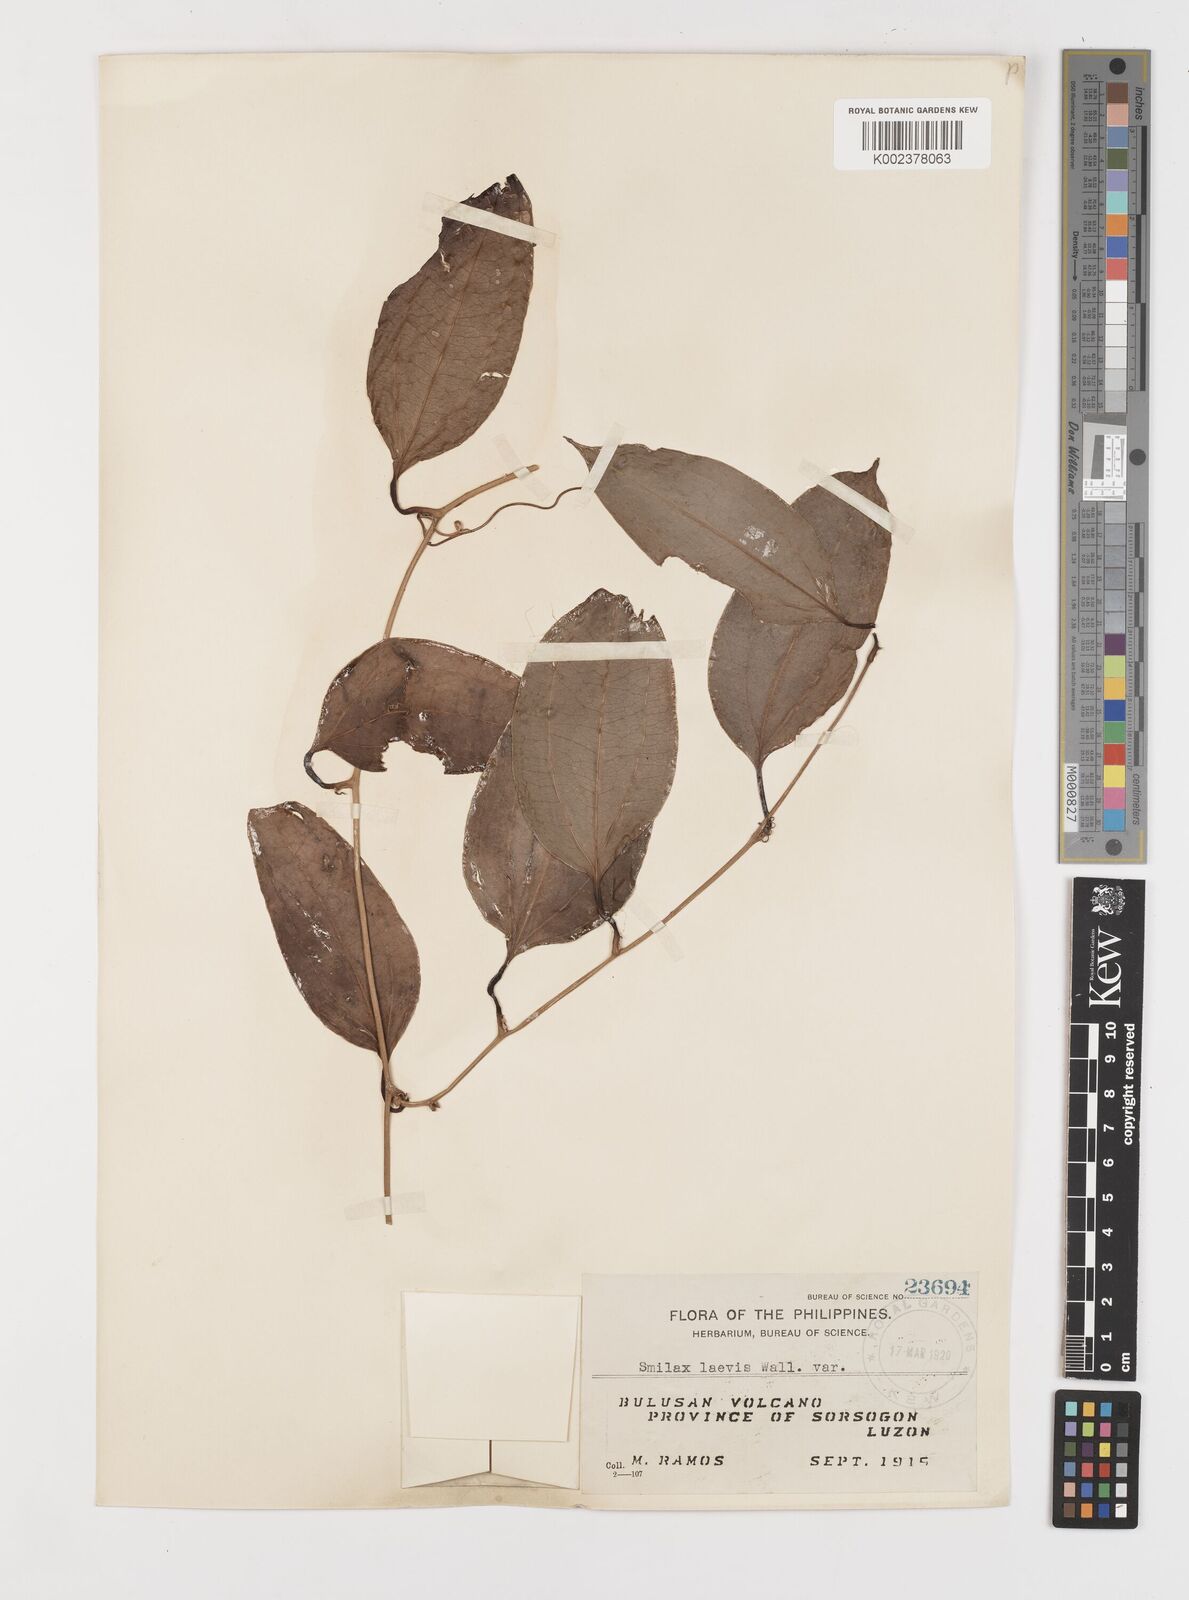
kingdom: Plantae
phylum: Tracheophyta
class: Liliopsida
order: Liliales
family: Smilacaceae
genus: Smilax
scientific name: Smilax laevis
